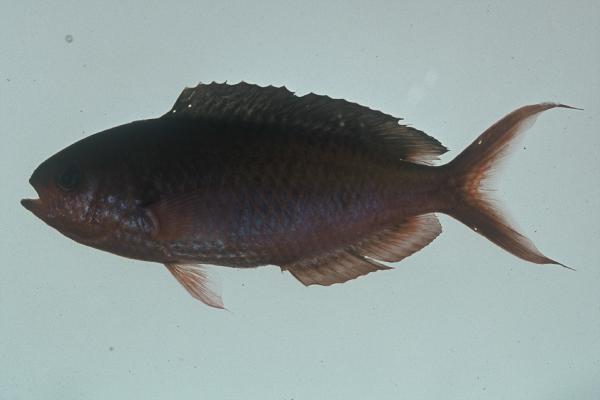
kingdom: Animalia
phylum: Chordata
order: Perciformes
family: Pomacentridae
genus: Lepidozygus
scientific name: Lepidozygus tapeinosoma
